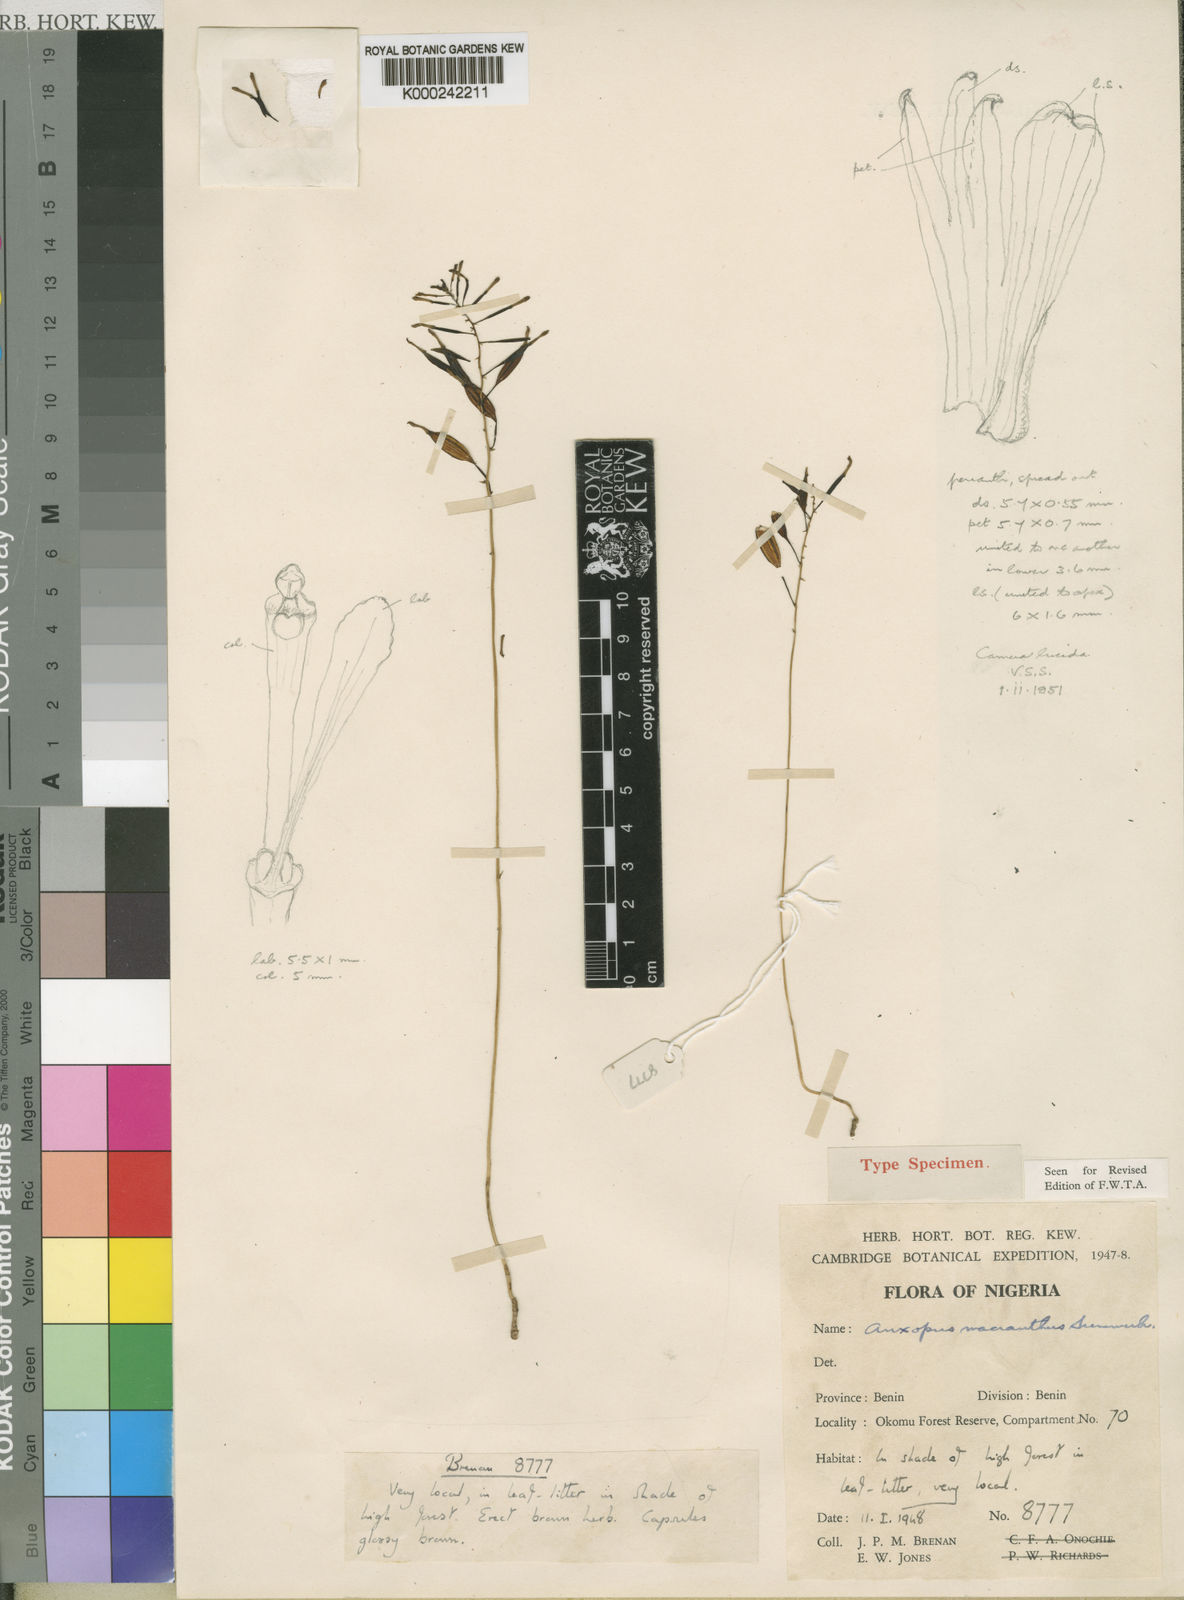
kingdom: Plantae
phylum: Tracheophyta
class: Liliopsida
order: Asparagales
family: Orchidaceae
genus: Auxopus
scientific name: Auxopus macranthus
